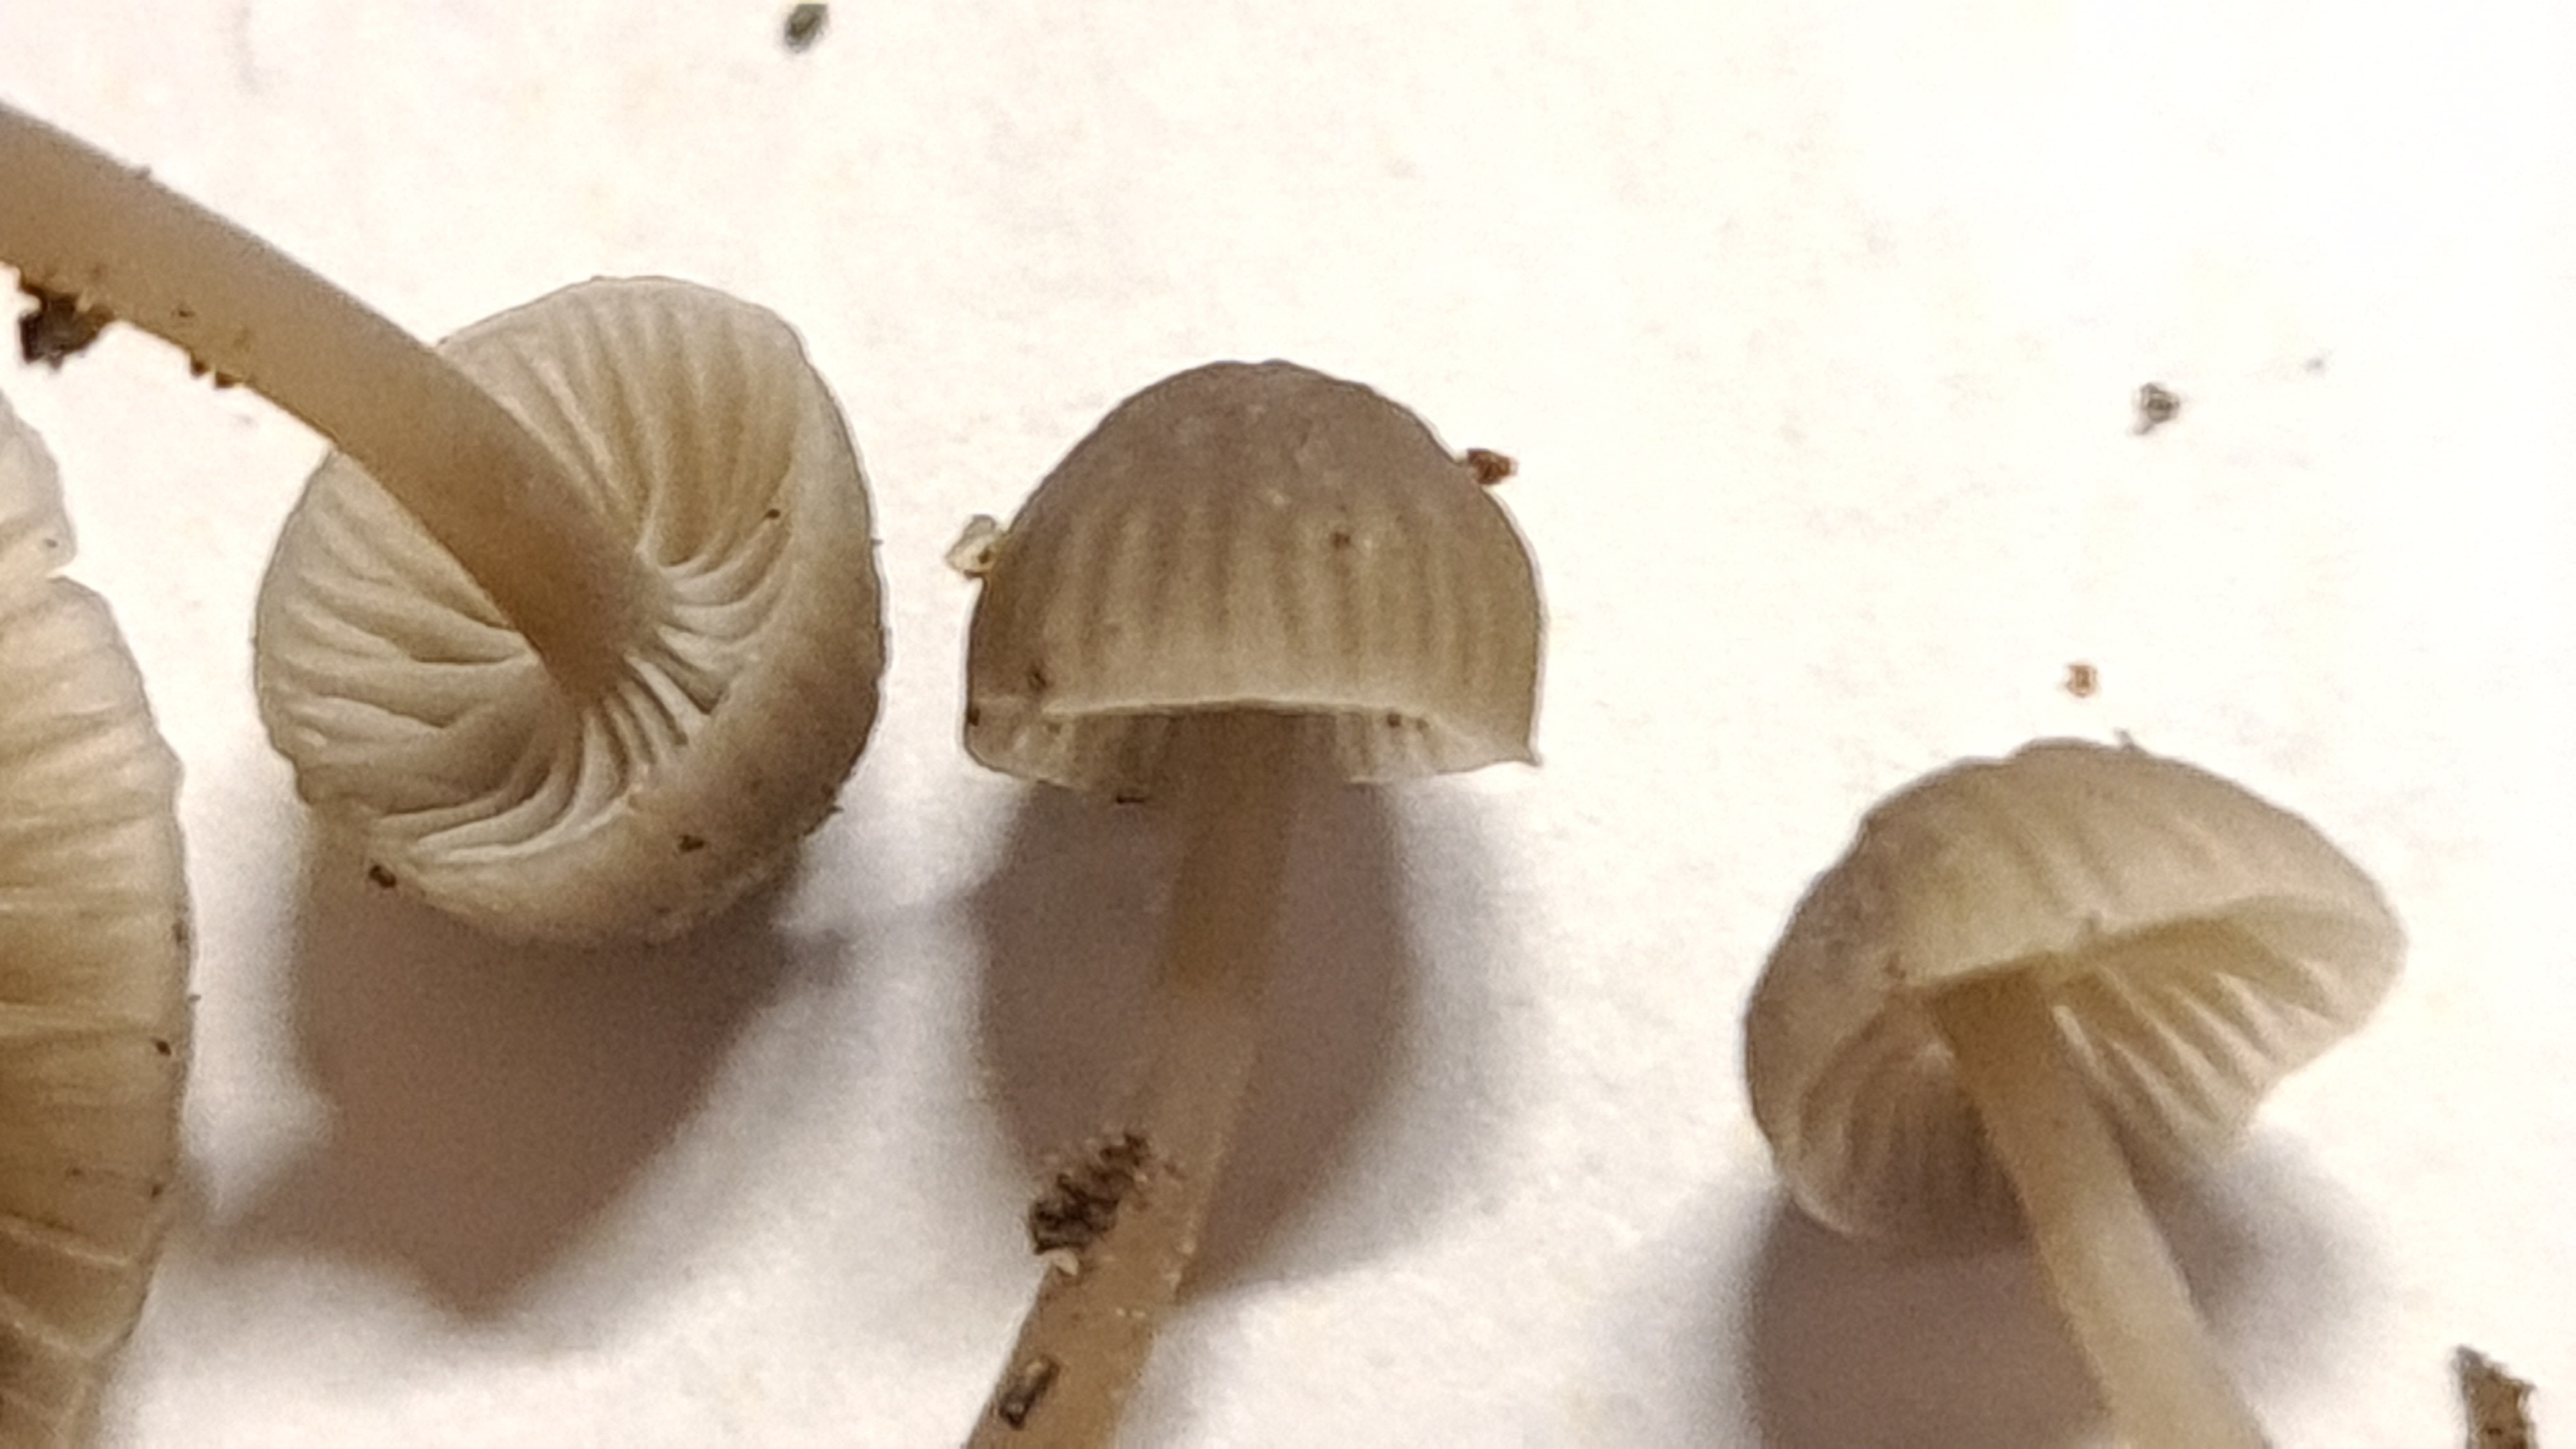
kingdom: Fungi
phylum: Basidiomycota
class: Agaricomycetes
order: Agaricales
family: Mycenaceae
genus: Mycena
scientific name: Mycena cinerella
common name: mel-huesvamp
